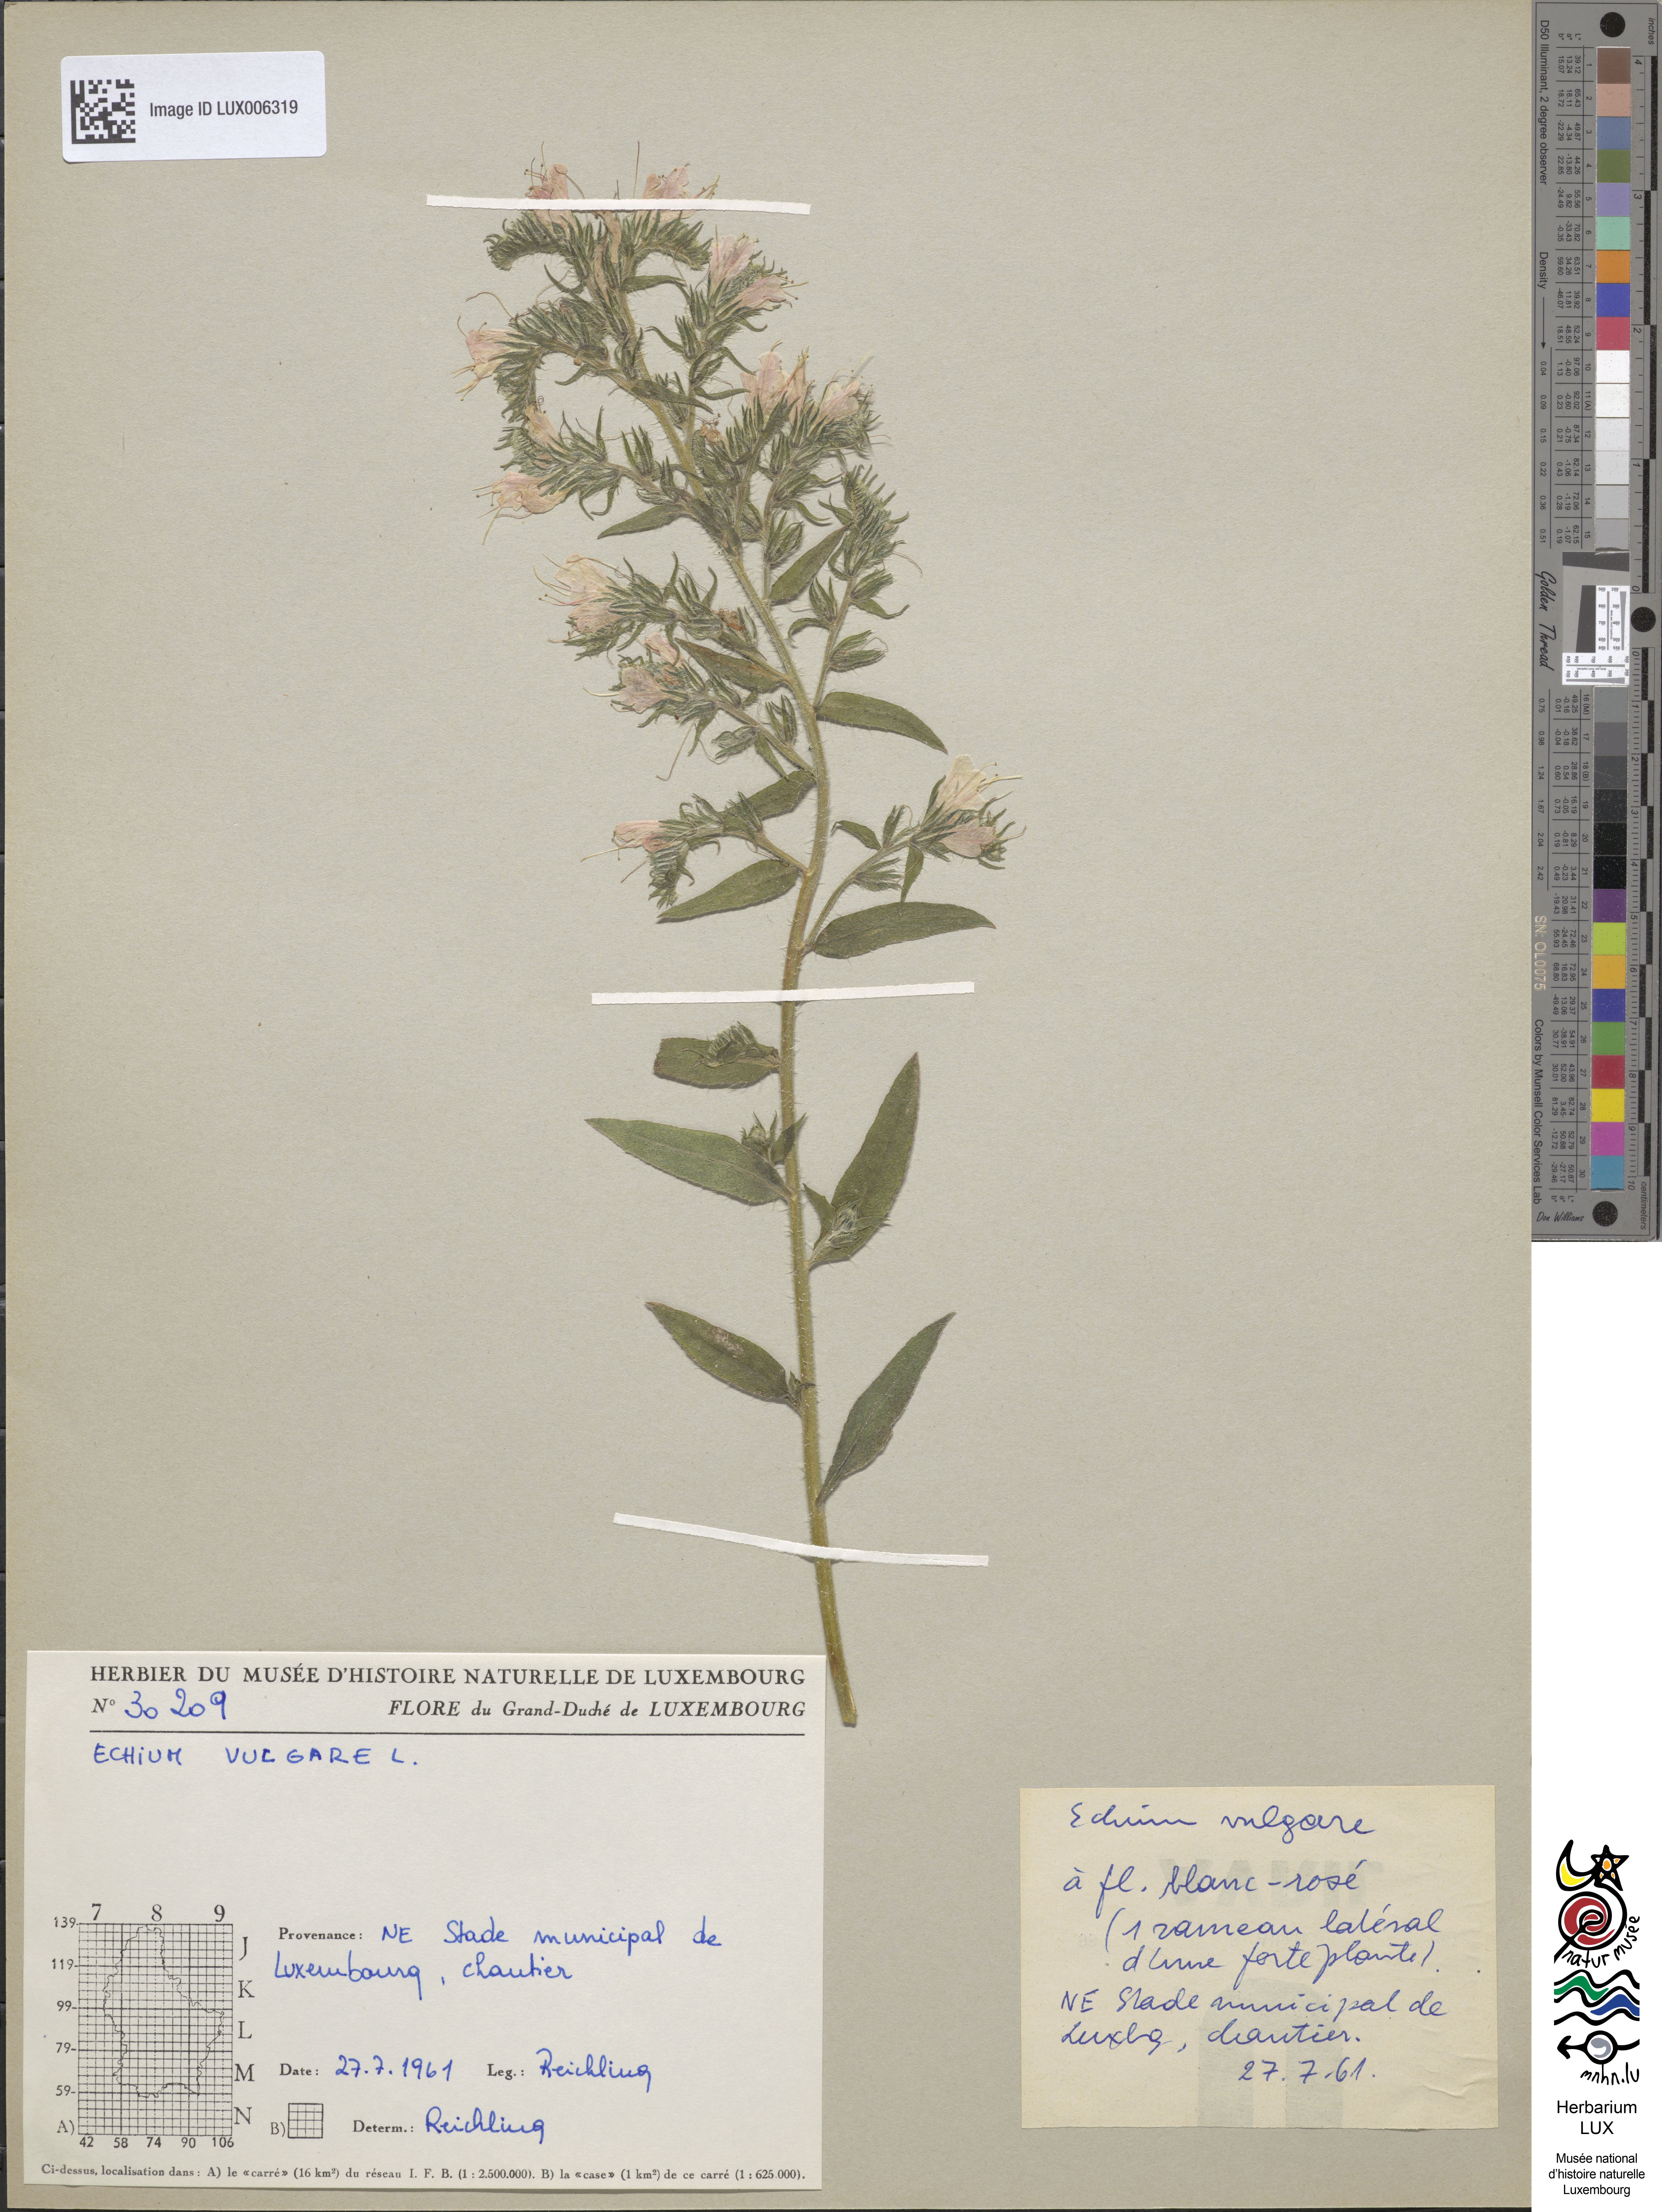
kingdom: Plantae
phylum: Tracheophyta
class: Magnoliopsida
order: Boraginales
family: Boraginaceae
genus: Echium
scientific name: Echium vulgare
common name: Common viper's bugloss
